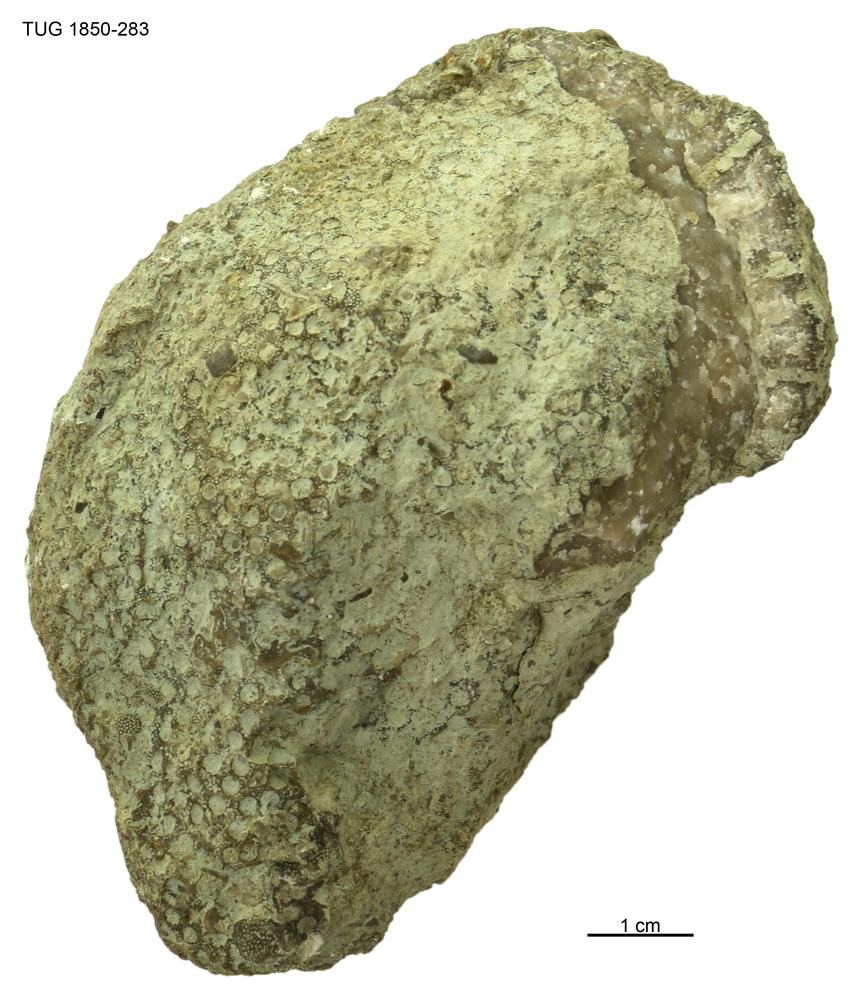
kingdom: Animalia
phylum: Cnidaria
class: Anthozoa
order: Heliolitina
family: Heliolitidae
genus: Heliolites
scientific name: Heliolites
